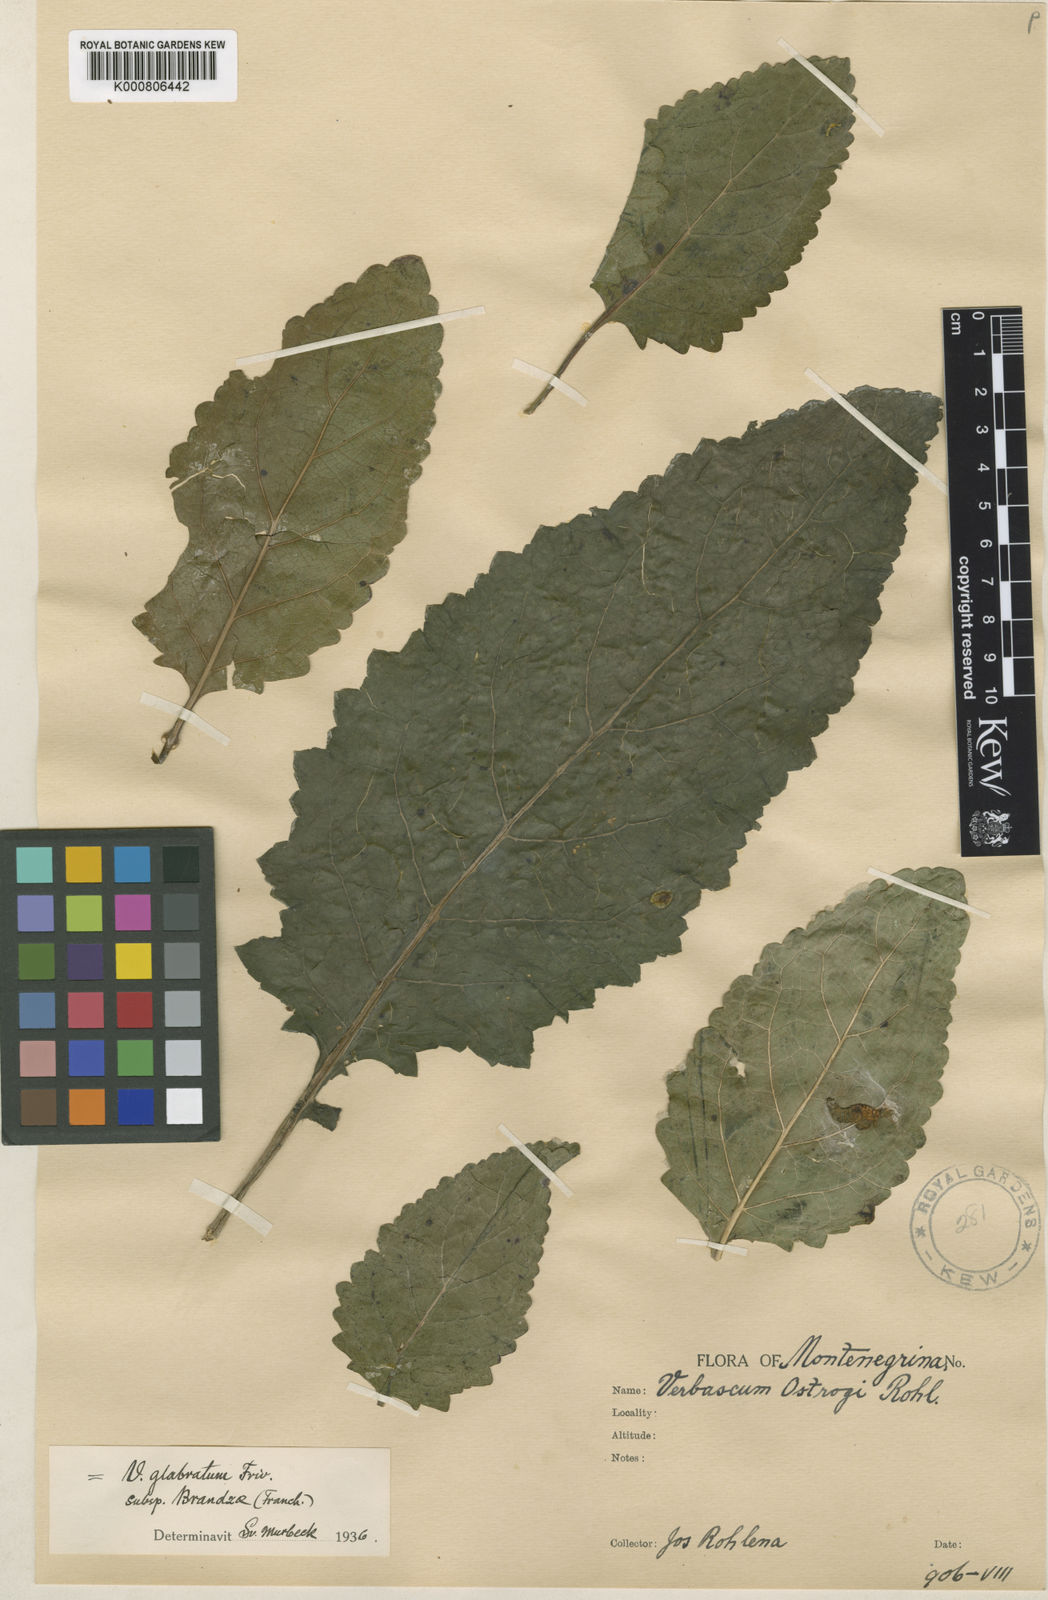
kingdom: Plantae
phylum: Tracheophyta
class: Magnoliopsida
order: Lamiales
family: Scrophulariaceae
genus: Verbascum
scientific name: Verbascum glabratum
